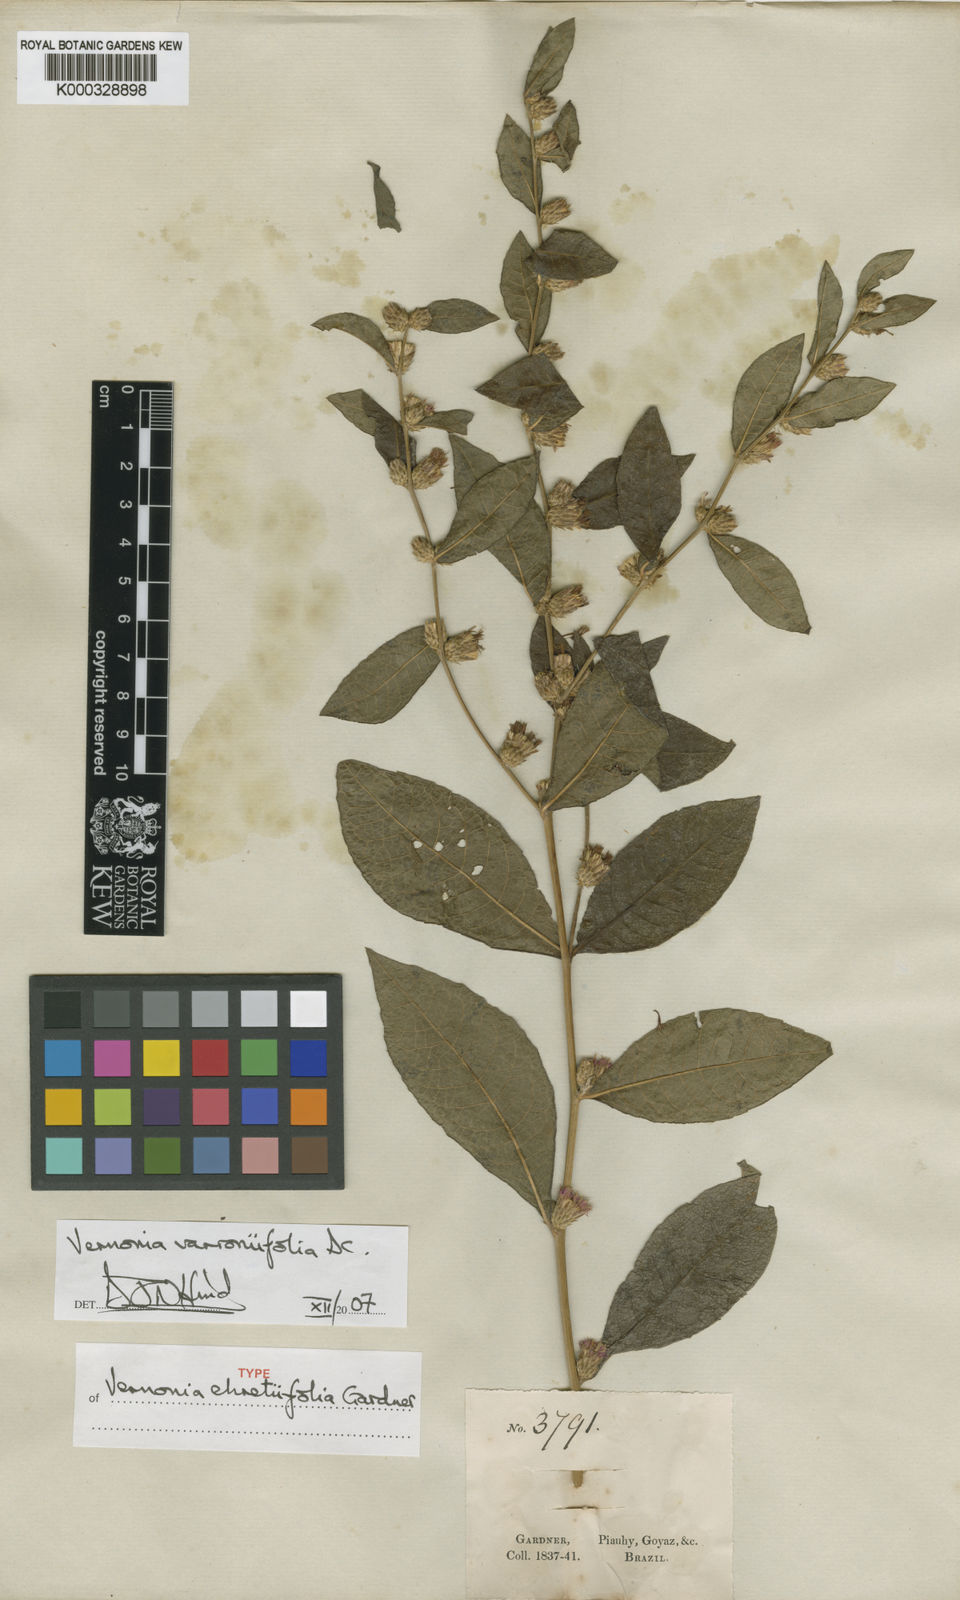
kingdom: Plantae
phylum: Tracheophyta
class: Magnoliopsida
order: Asterales
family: Asteraceae
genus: Lessingianthus
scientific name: Lessingianthus varroniifolius
